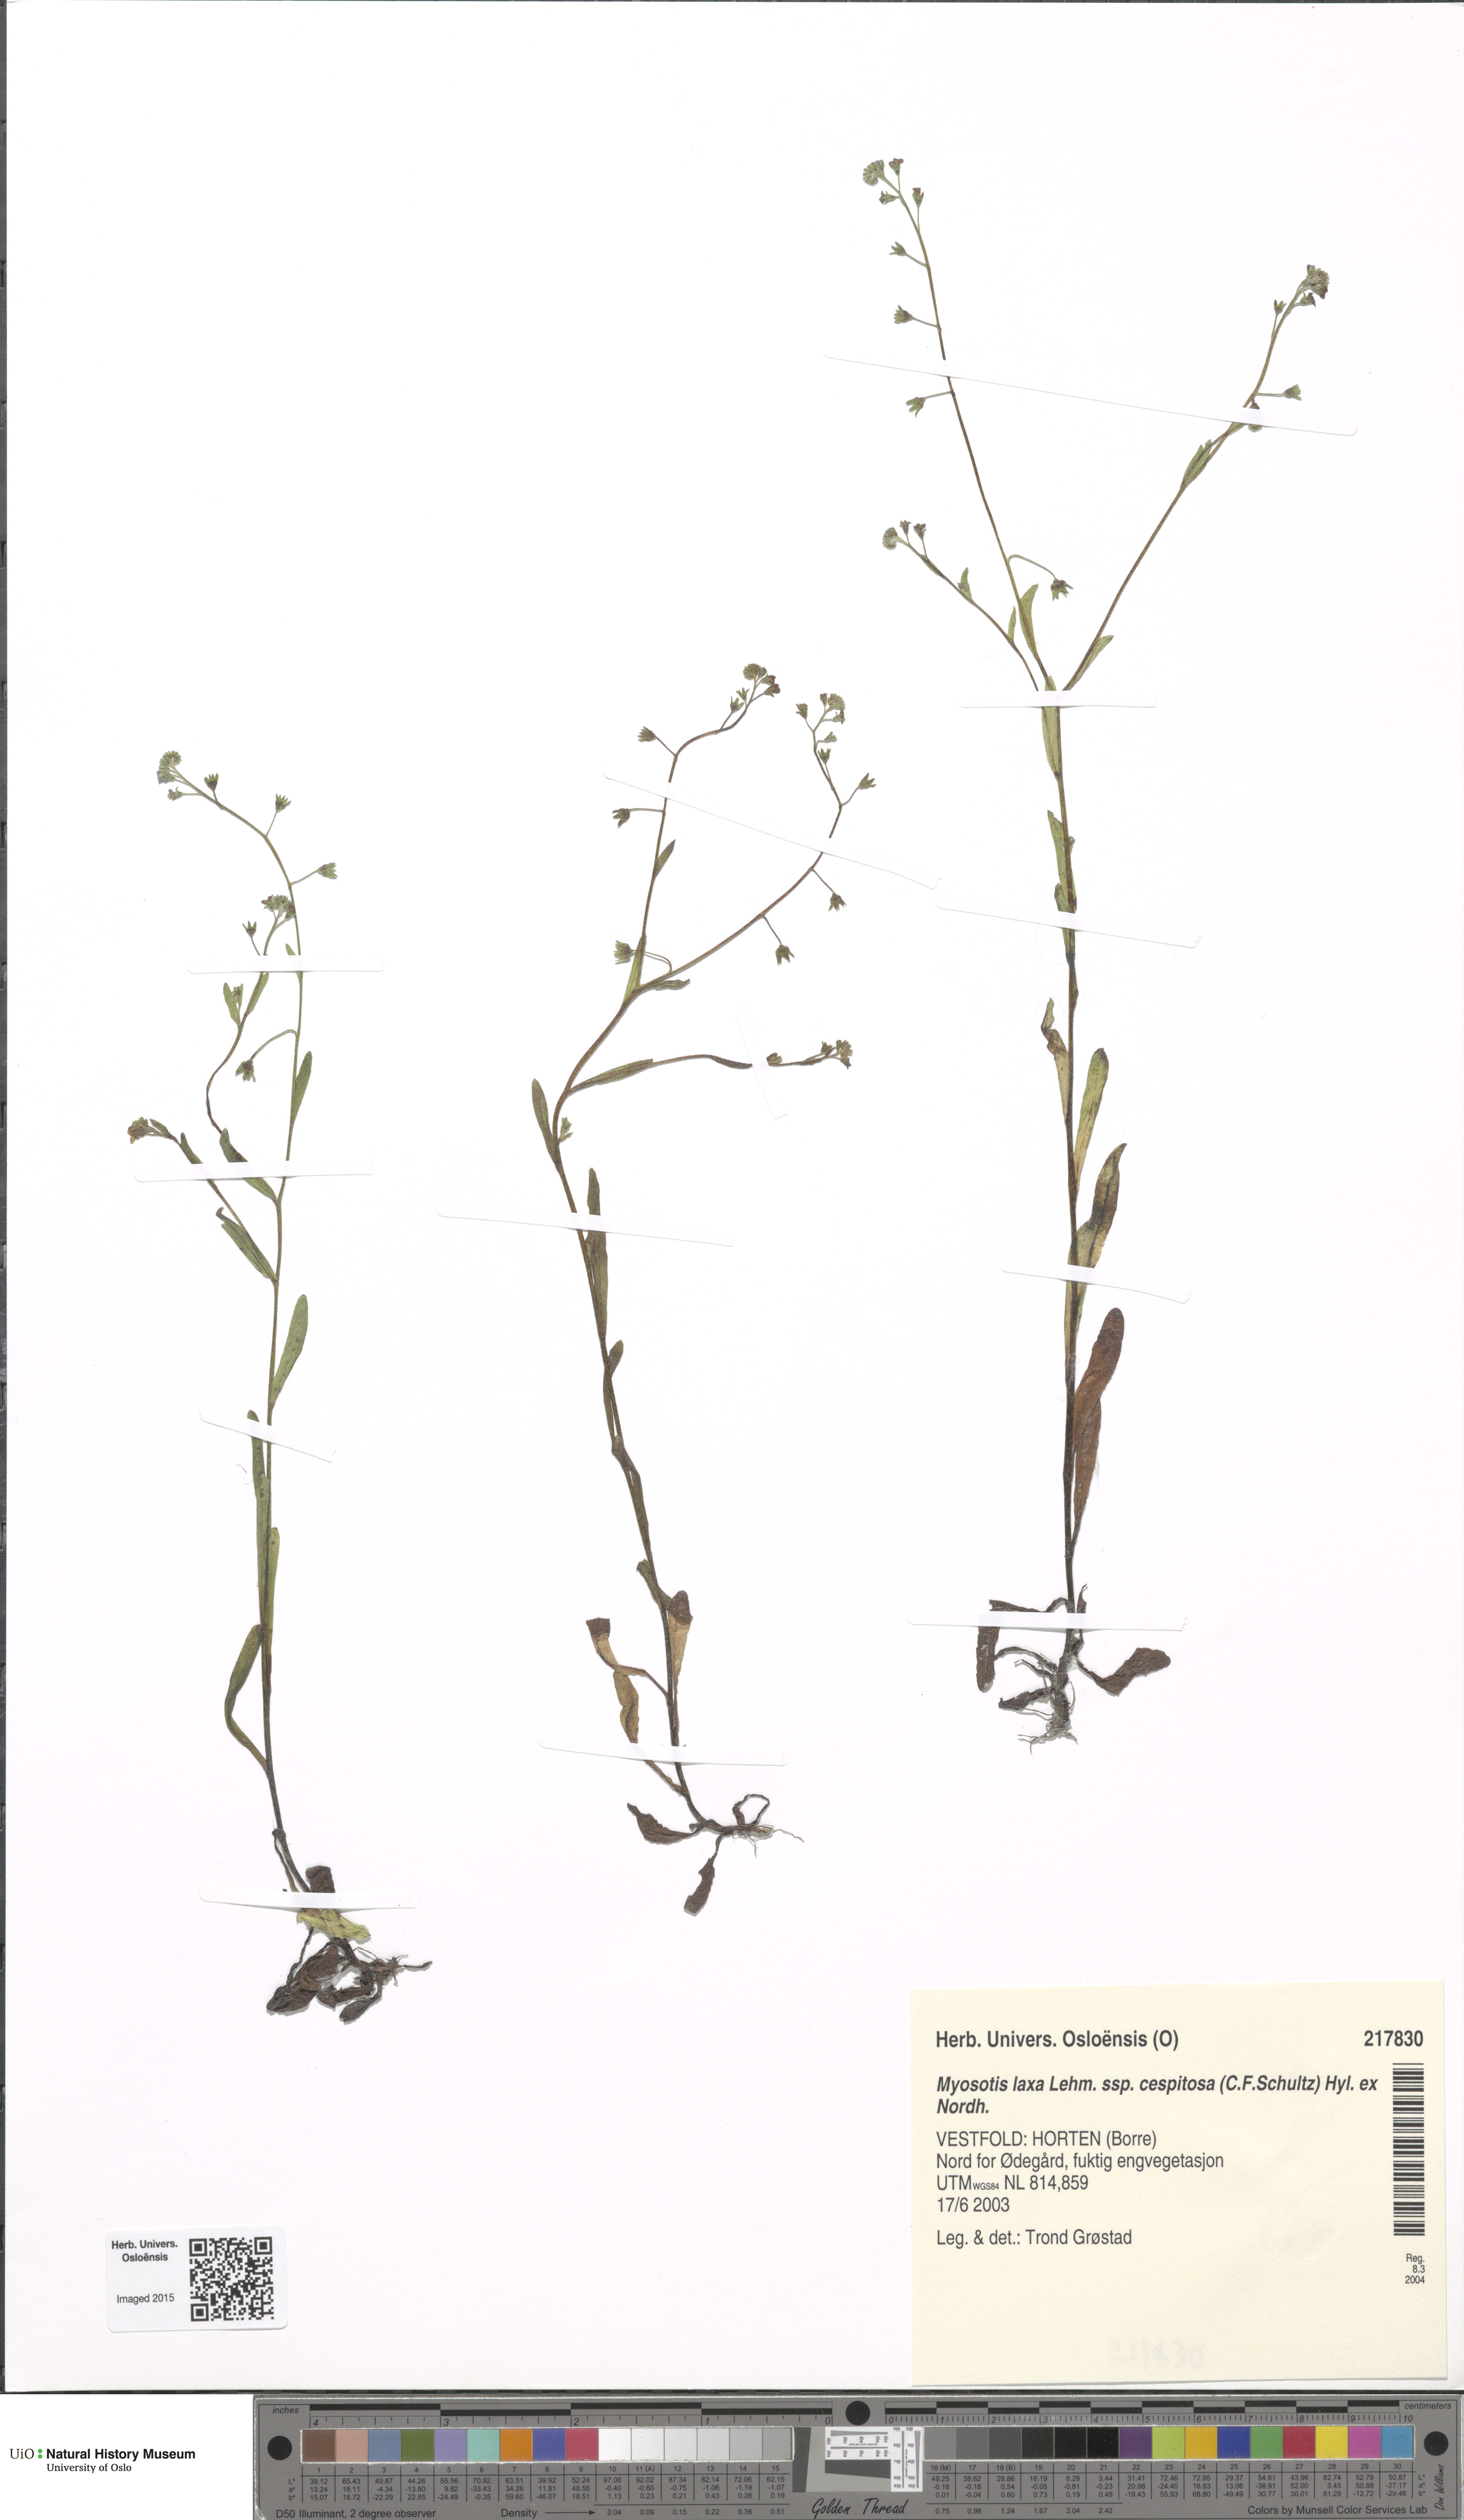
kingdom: Plantae
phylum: Tracheophyta
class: Magnoliopsida
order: Boraginales
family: Boraginaceae
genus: Myosotis
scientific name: Myosotis laxa
